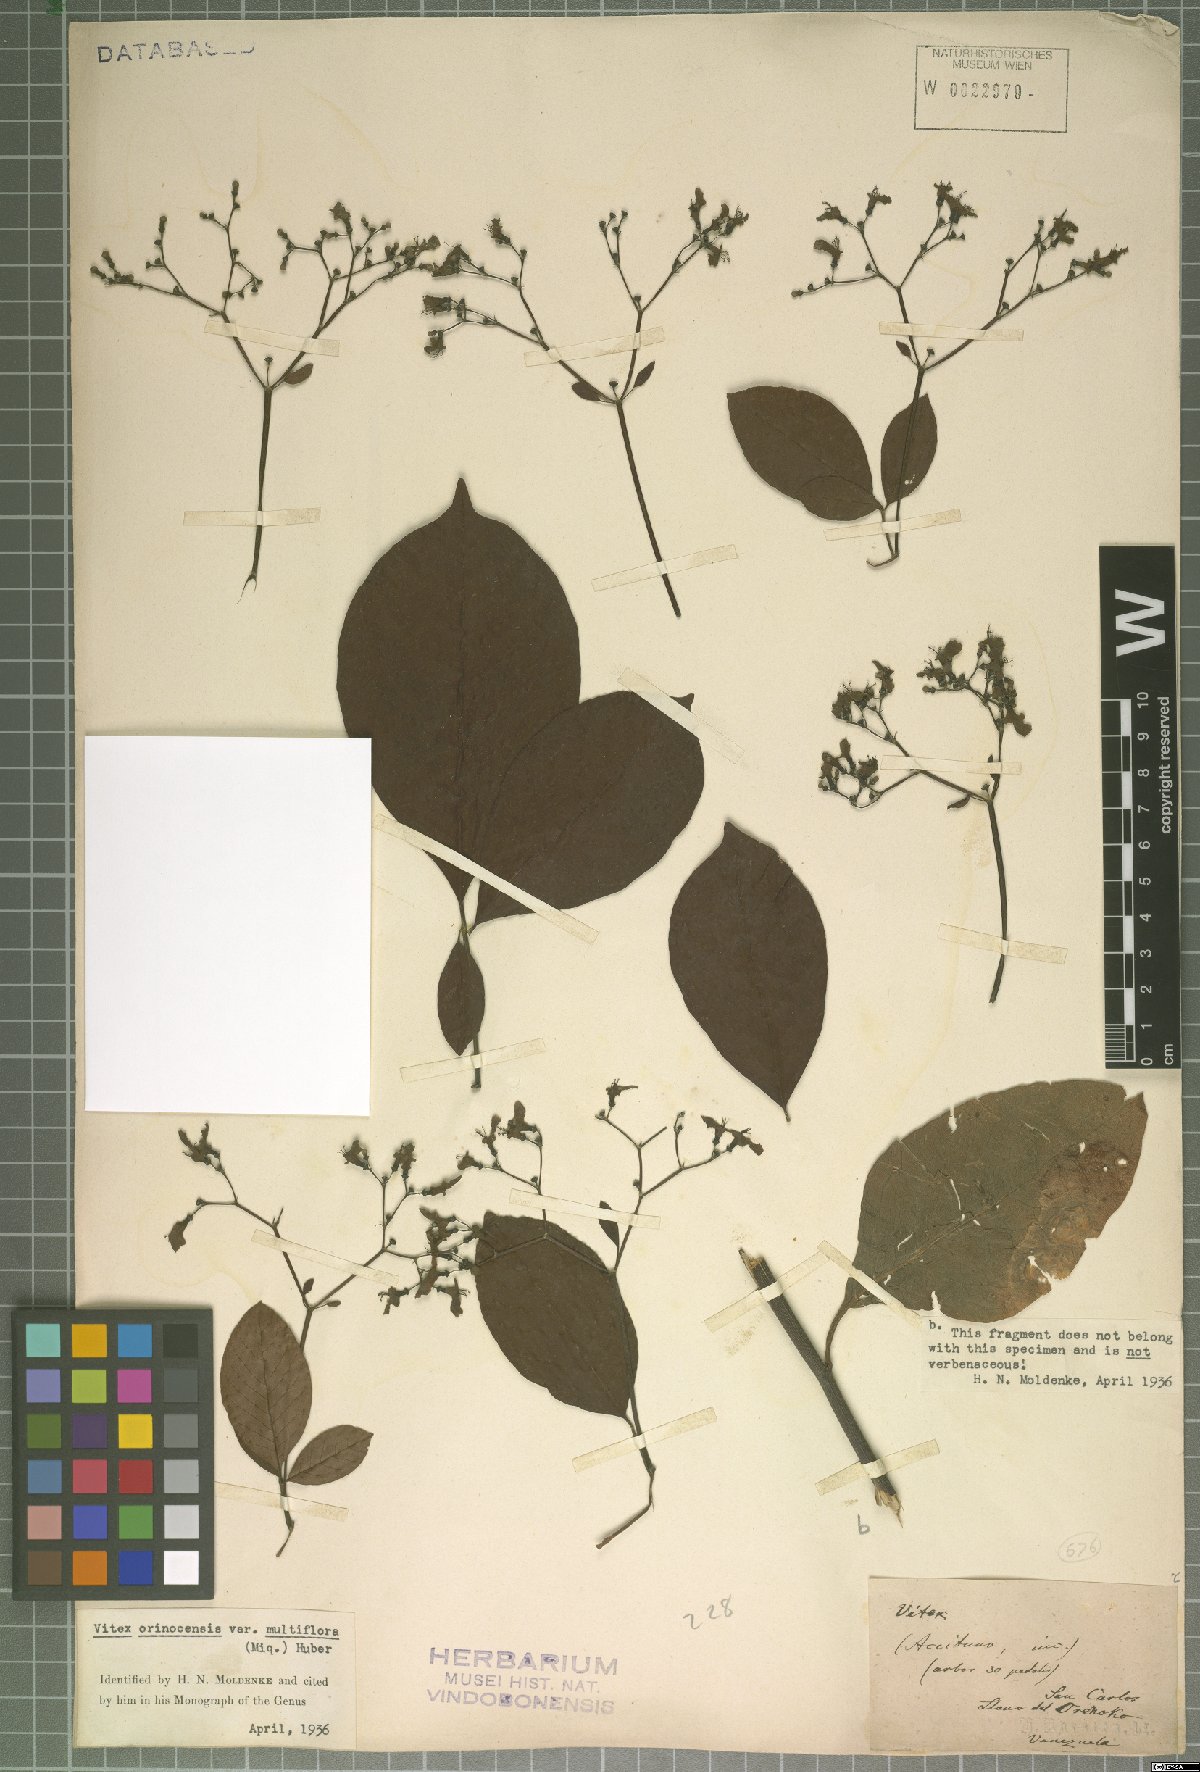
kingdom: Plantae
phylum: Tracheophyta
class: Magnoliopsida
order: Lamiales
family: Lamiaceae
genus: Vitex
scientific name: Vitex orinocensis
